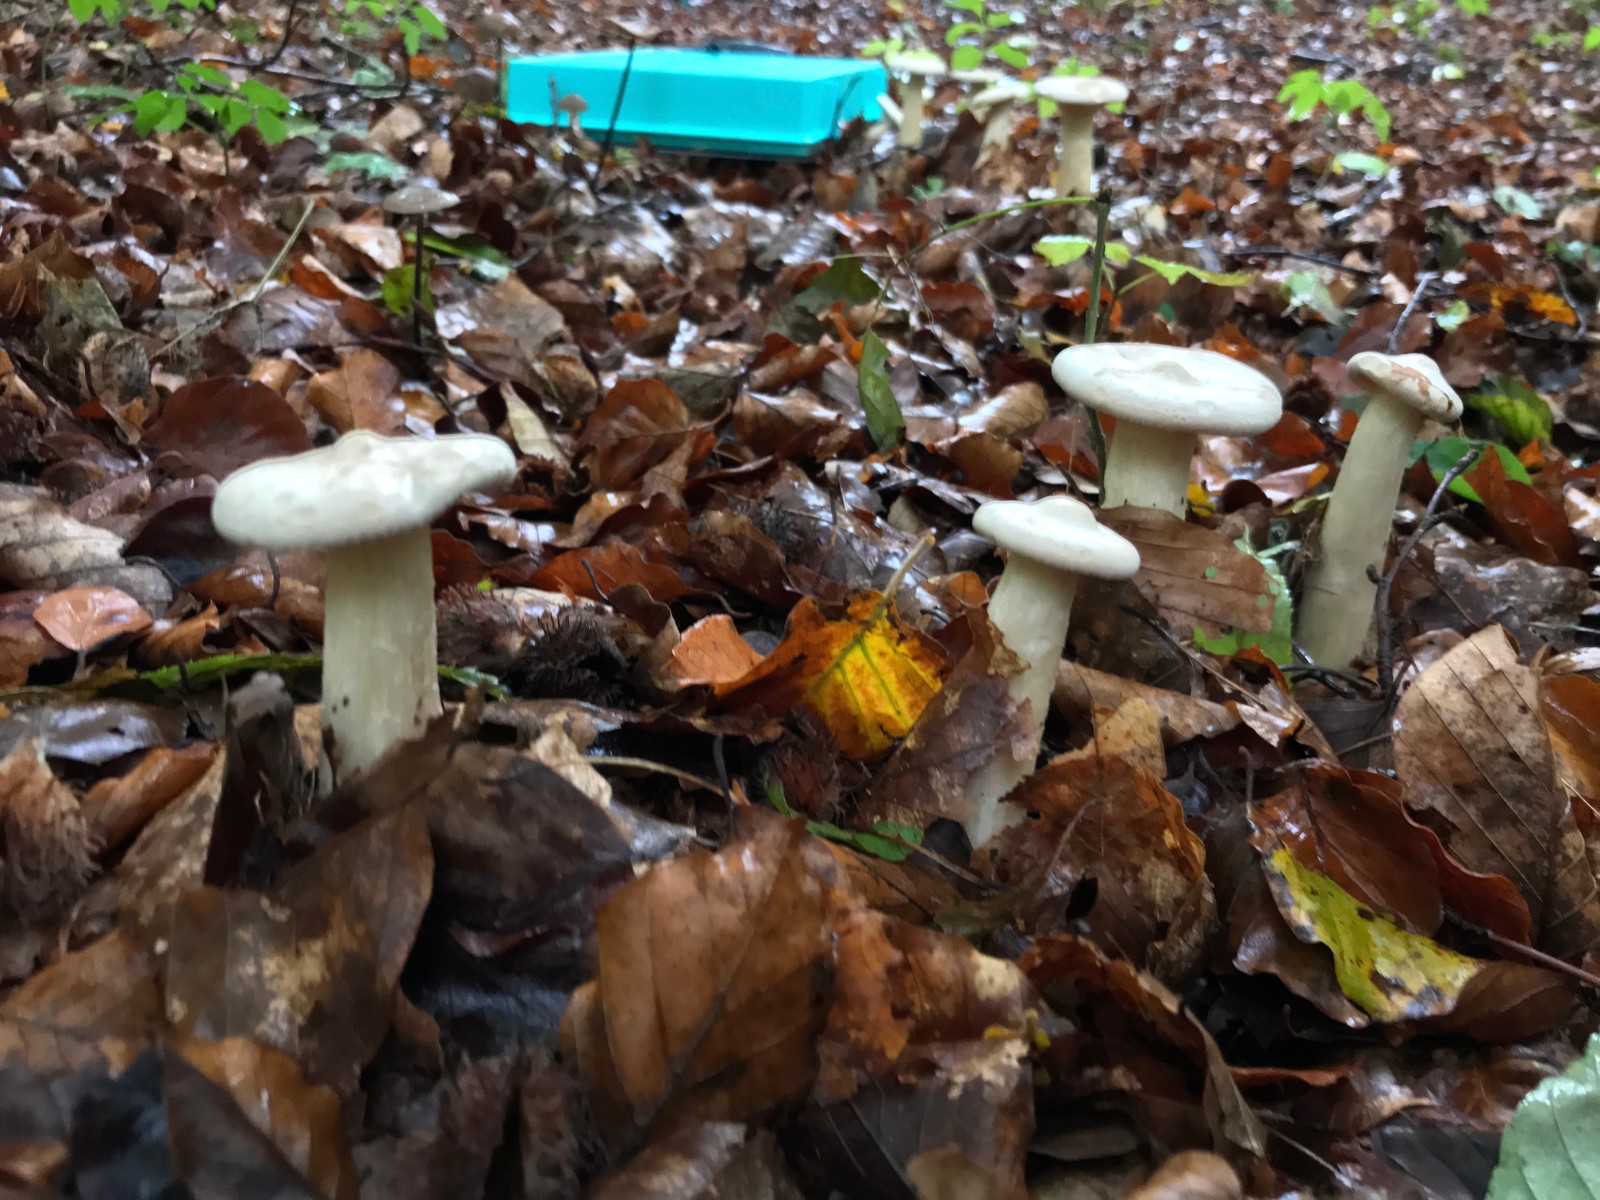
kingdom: Fungi
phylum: Basidiomycota
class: Agaricomycetes
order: Agaricales
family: Tricholomataceae
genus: Infundibulicybe
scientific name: Infundibulicybe geotropa
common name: stor tragthat
